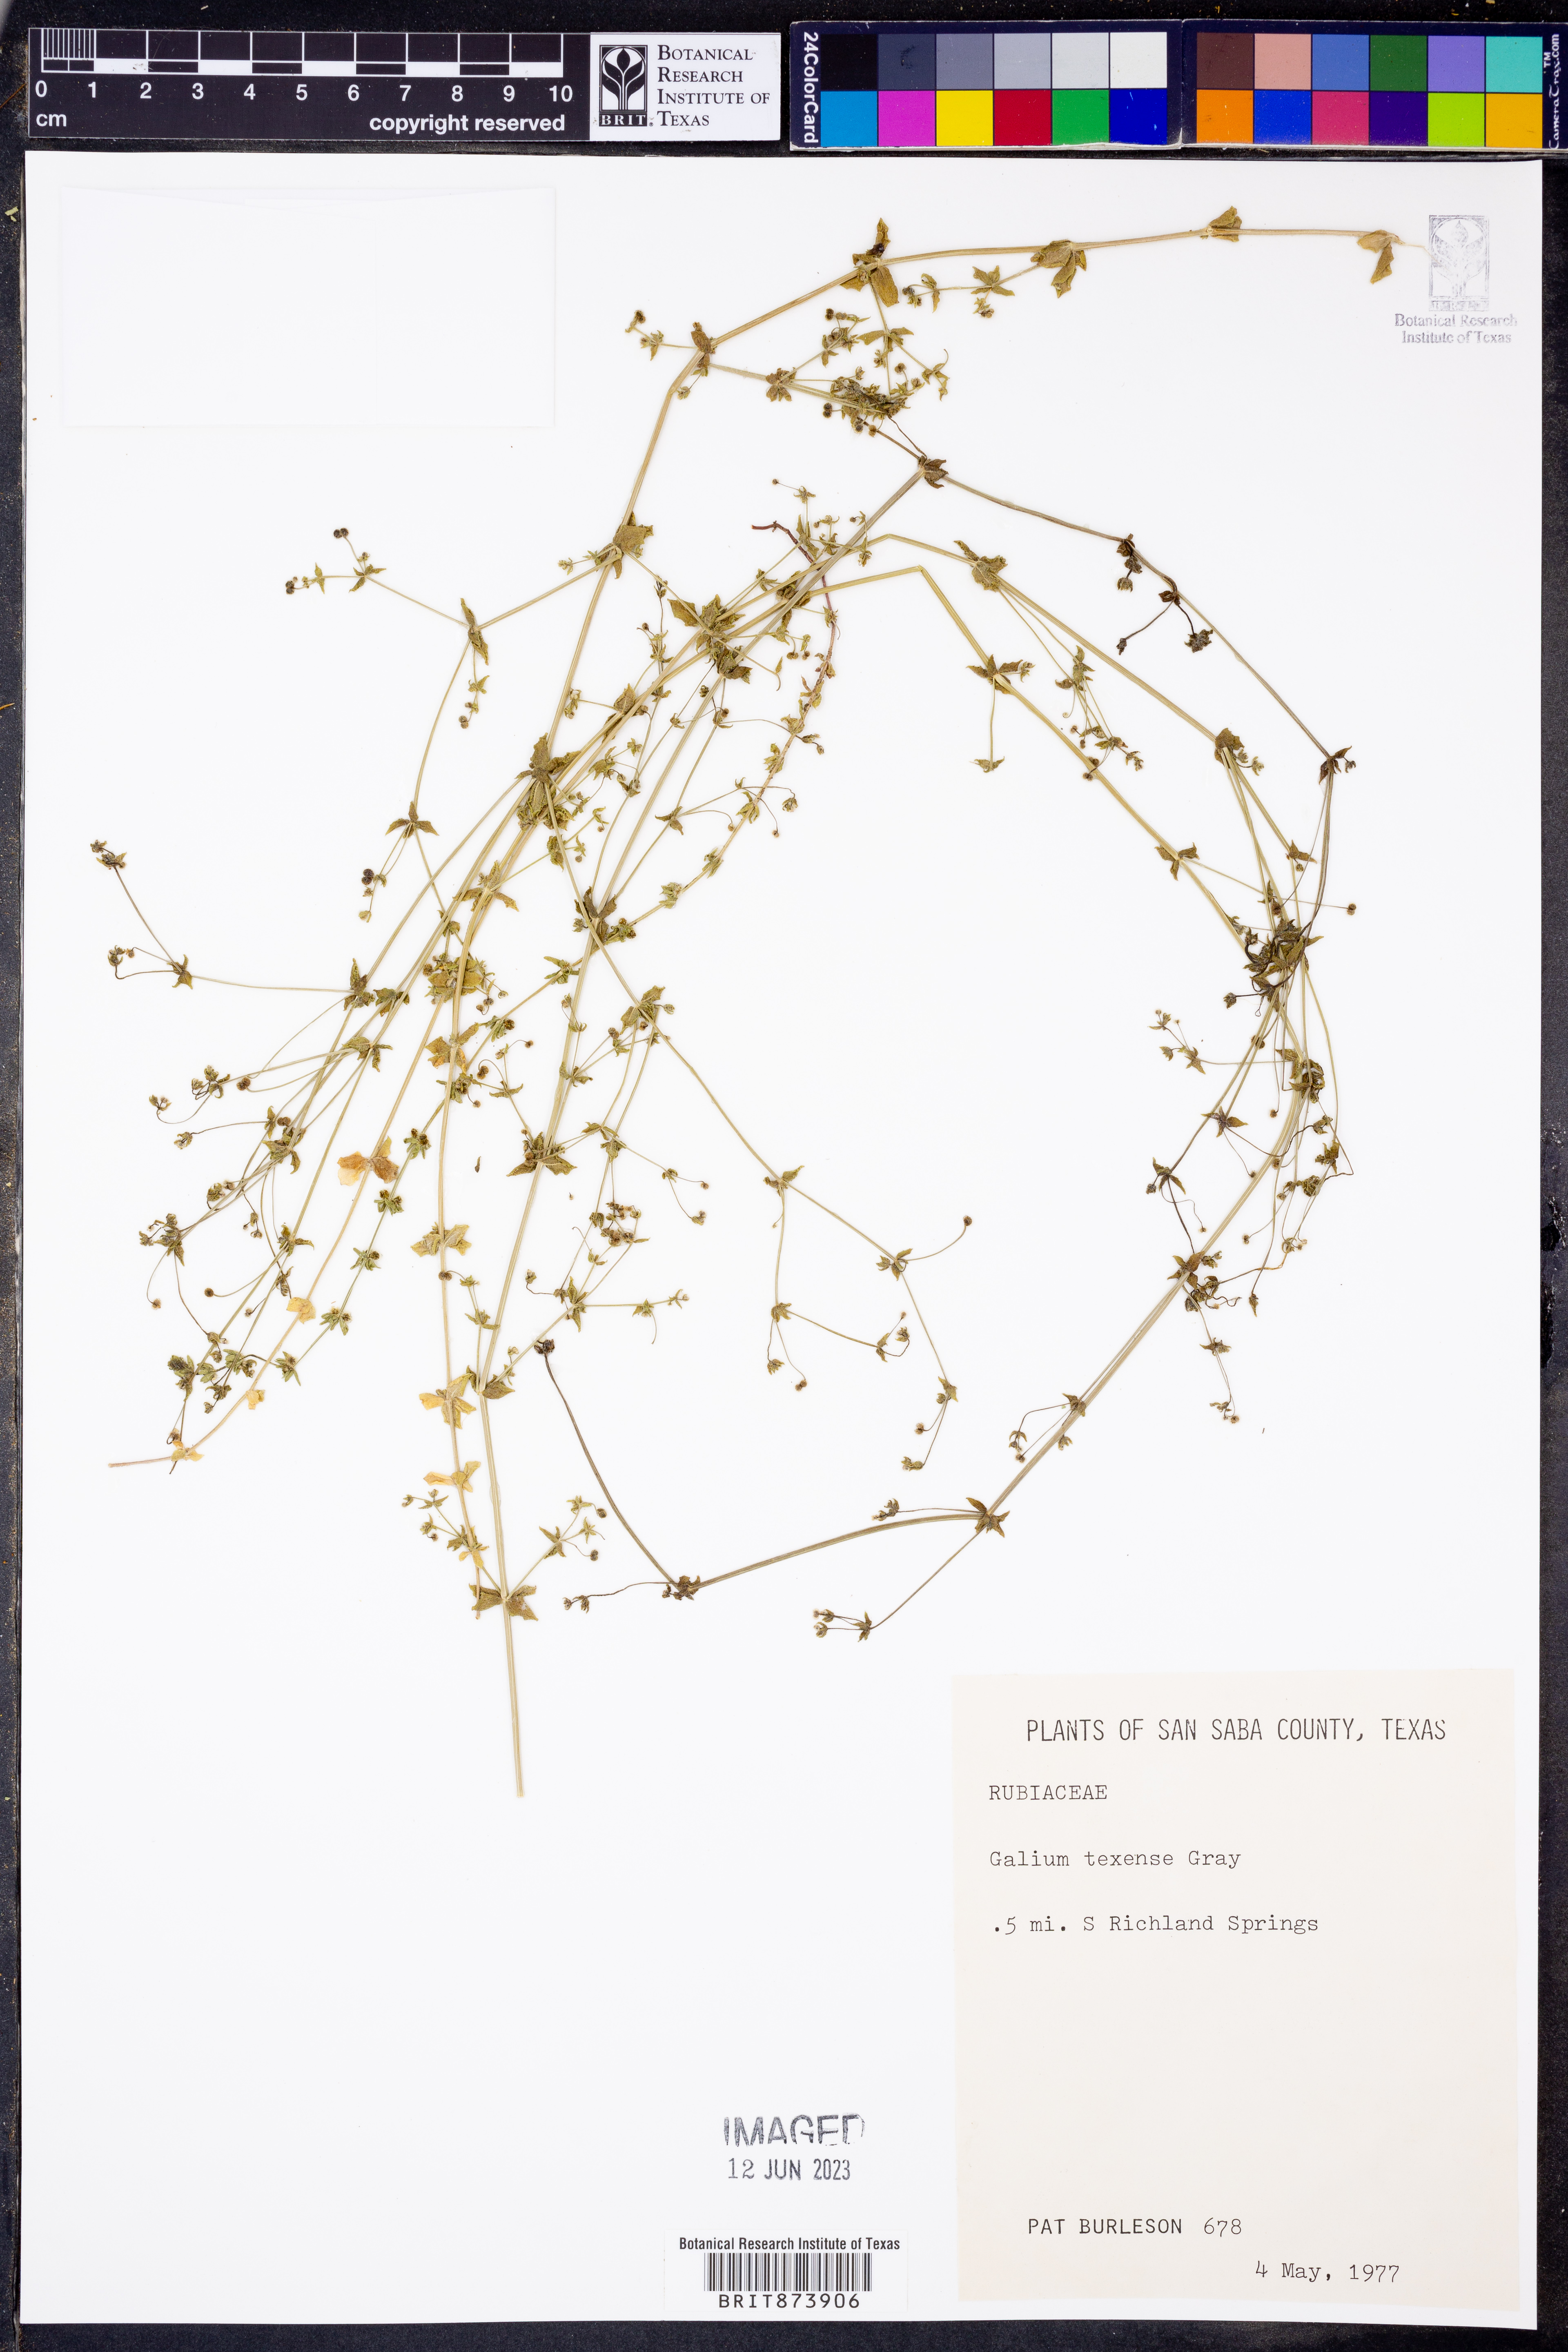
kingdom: Plantae
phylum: Tracheophyta
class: Magnoliopsida
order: Gentianales
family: Rubiaceae
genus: Galium
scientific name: Galium texense
